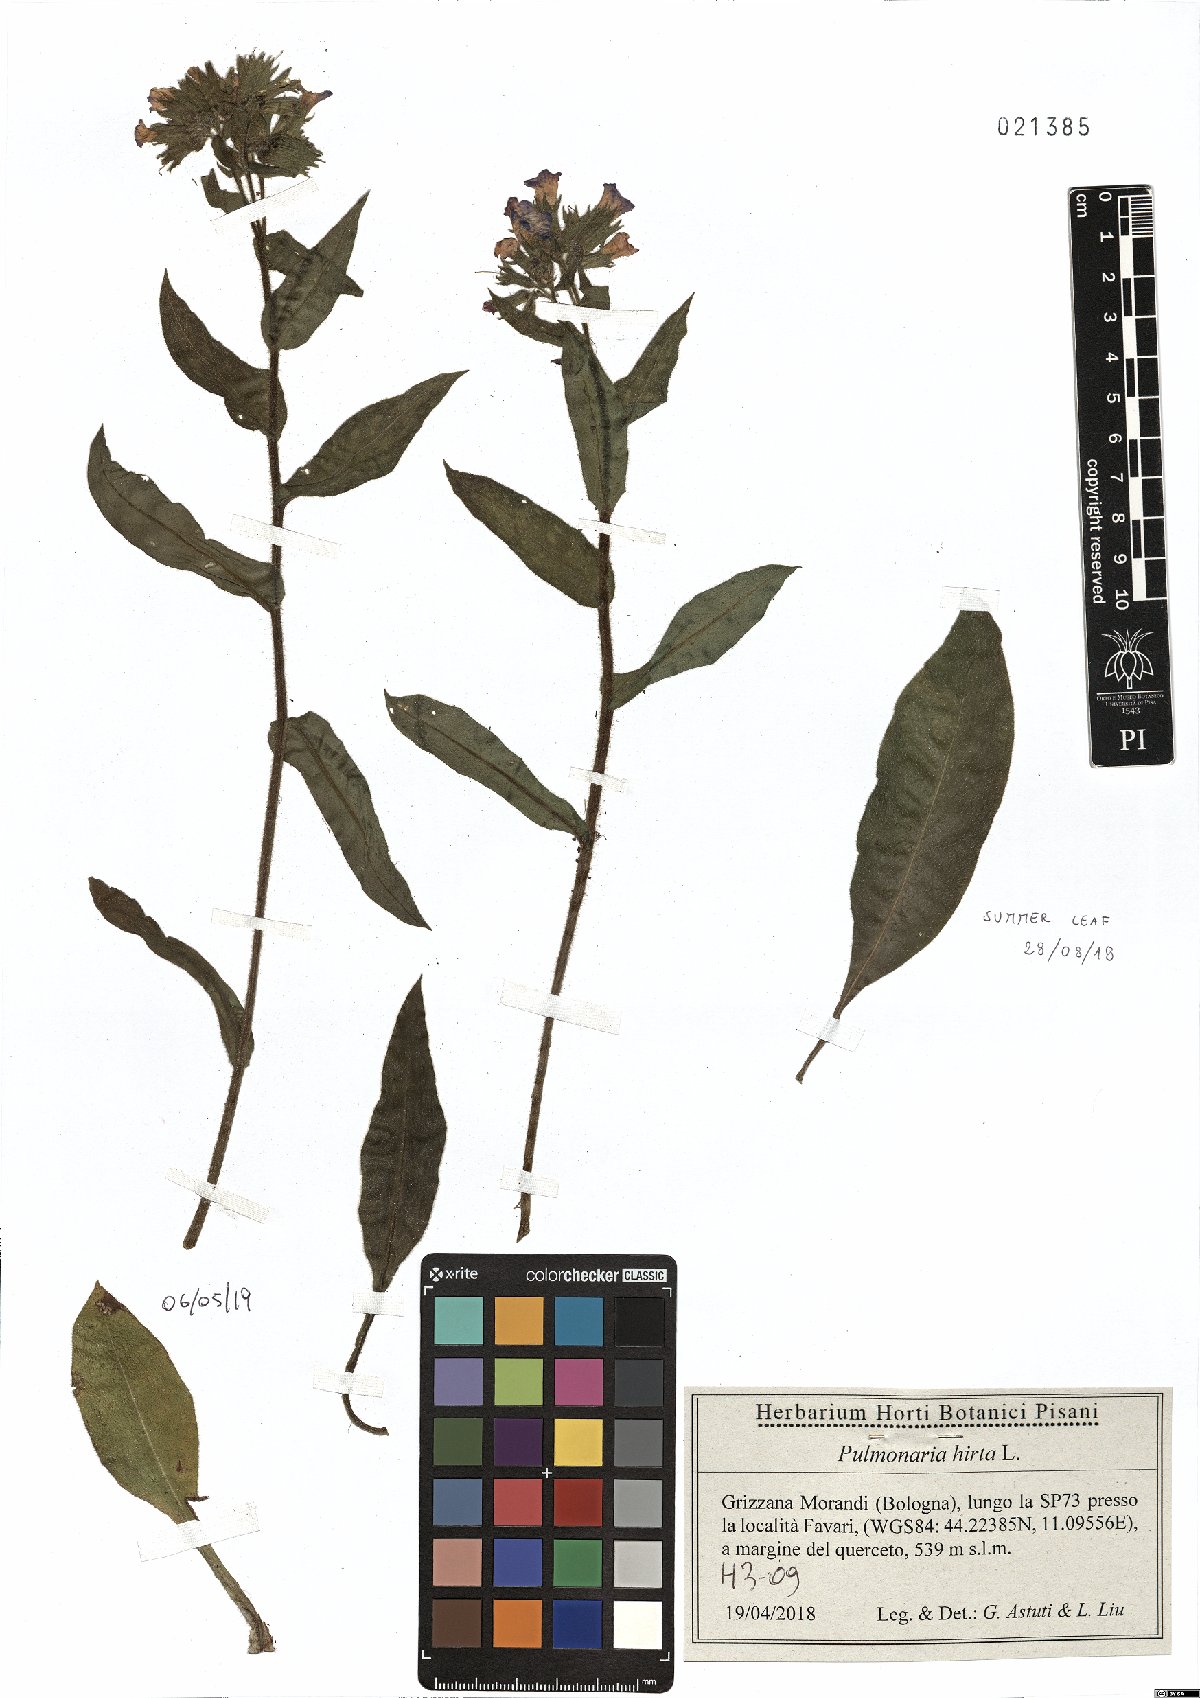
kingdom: Plantae
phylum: Tracheophyta
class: Magnoliopsida
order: Boraginales
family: Boraginaceae
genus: Pulmonaria
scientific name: Pulmonaria hirta
